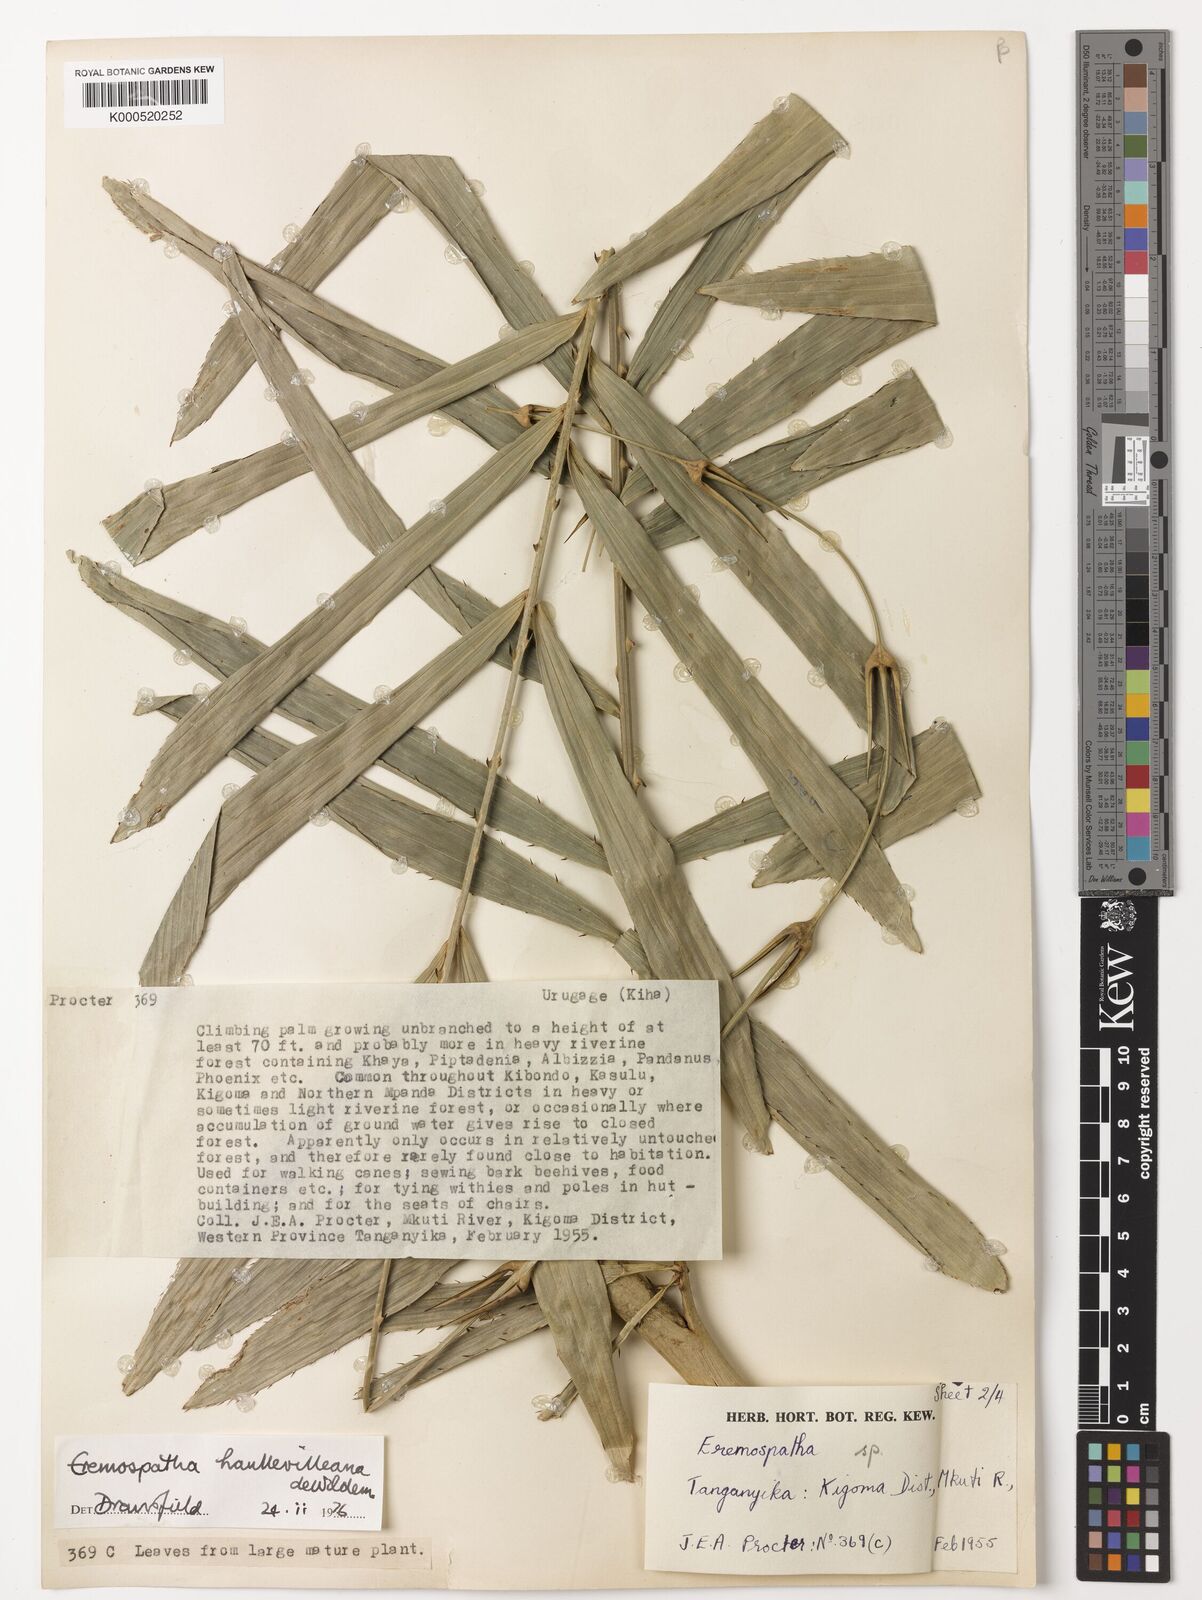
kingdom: Plantae
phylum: Tracheophyta
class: Liliopsida
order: Arecales
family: Arecaceae
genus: Eremospatha
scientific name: Eremospatha haullevilleana
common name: Rattan
